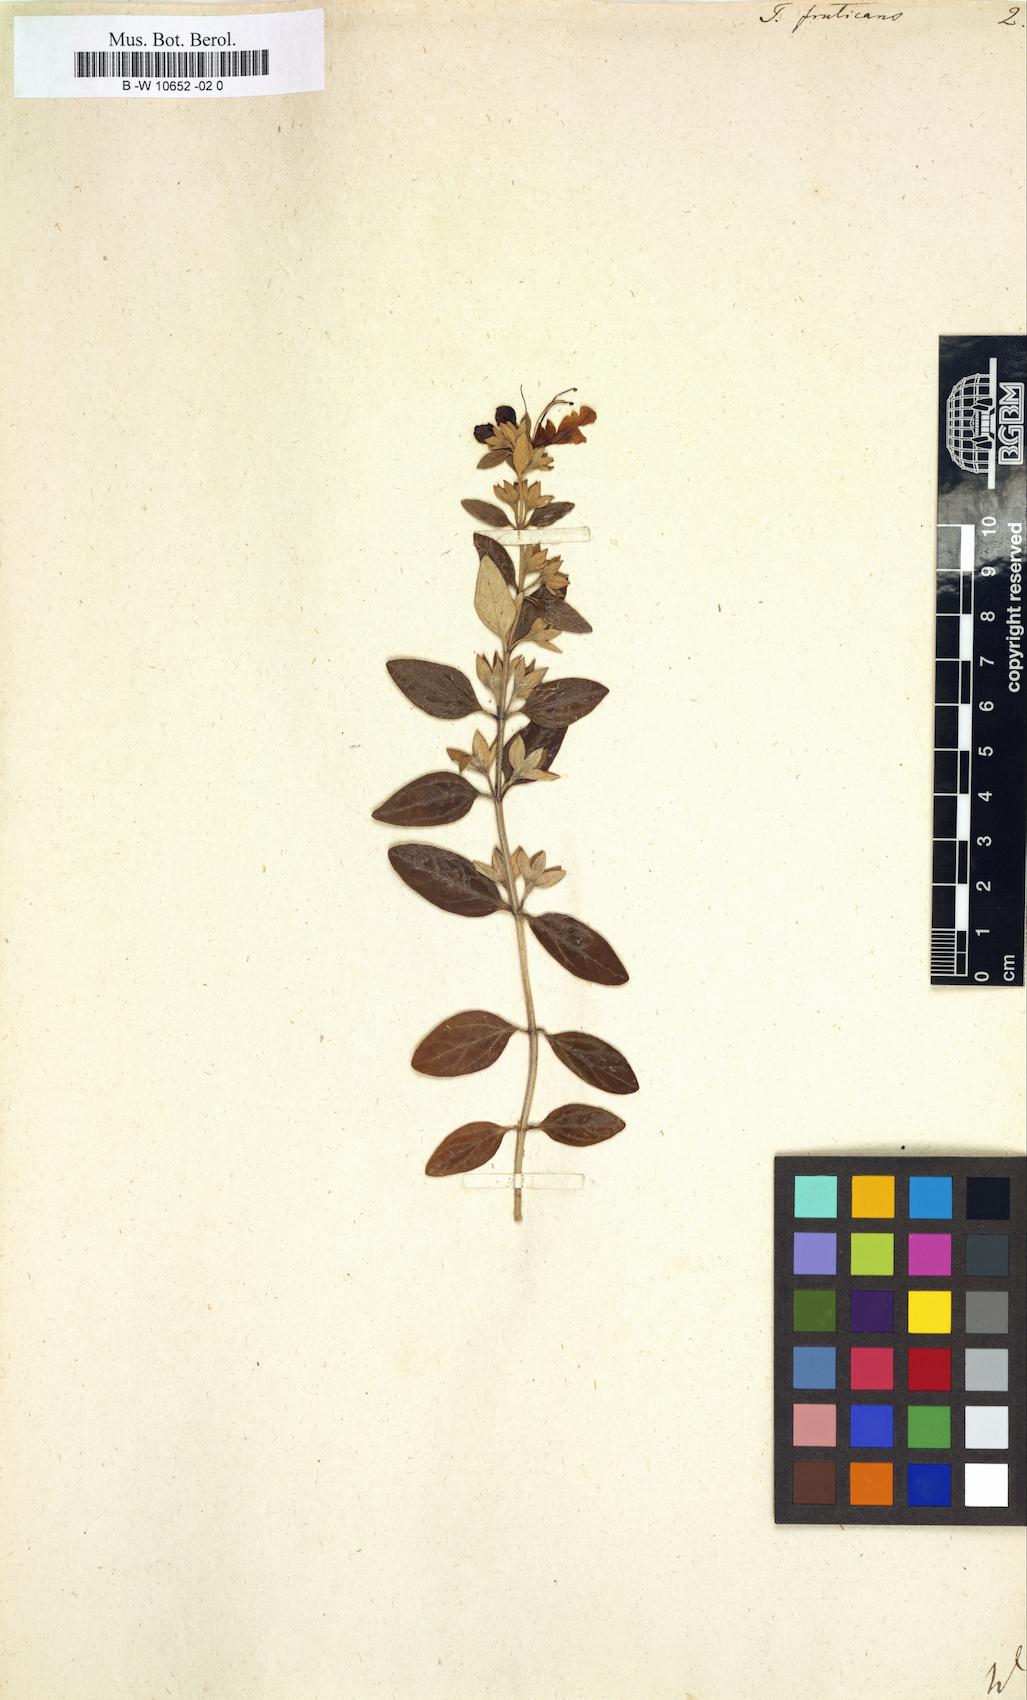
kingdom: Plantae
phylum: Tracheophyta
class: Magnoliopsida
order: Lamiales
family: Lamiaceae
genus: Teucrium
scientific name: Teucrium fruticans
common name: Shrubby germander
